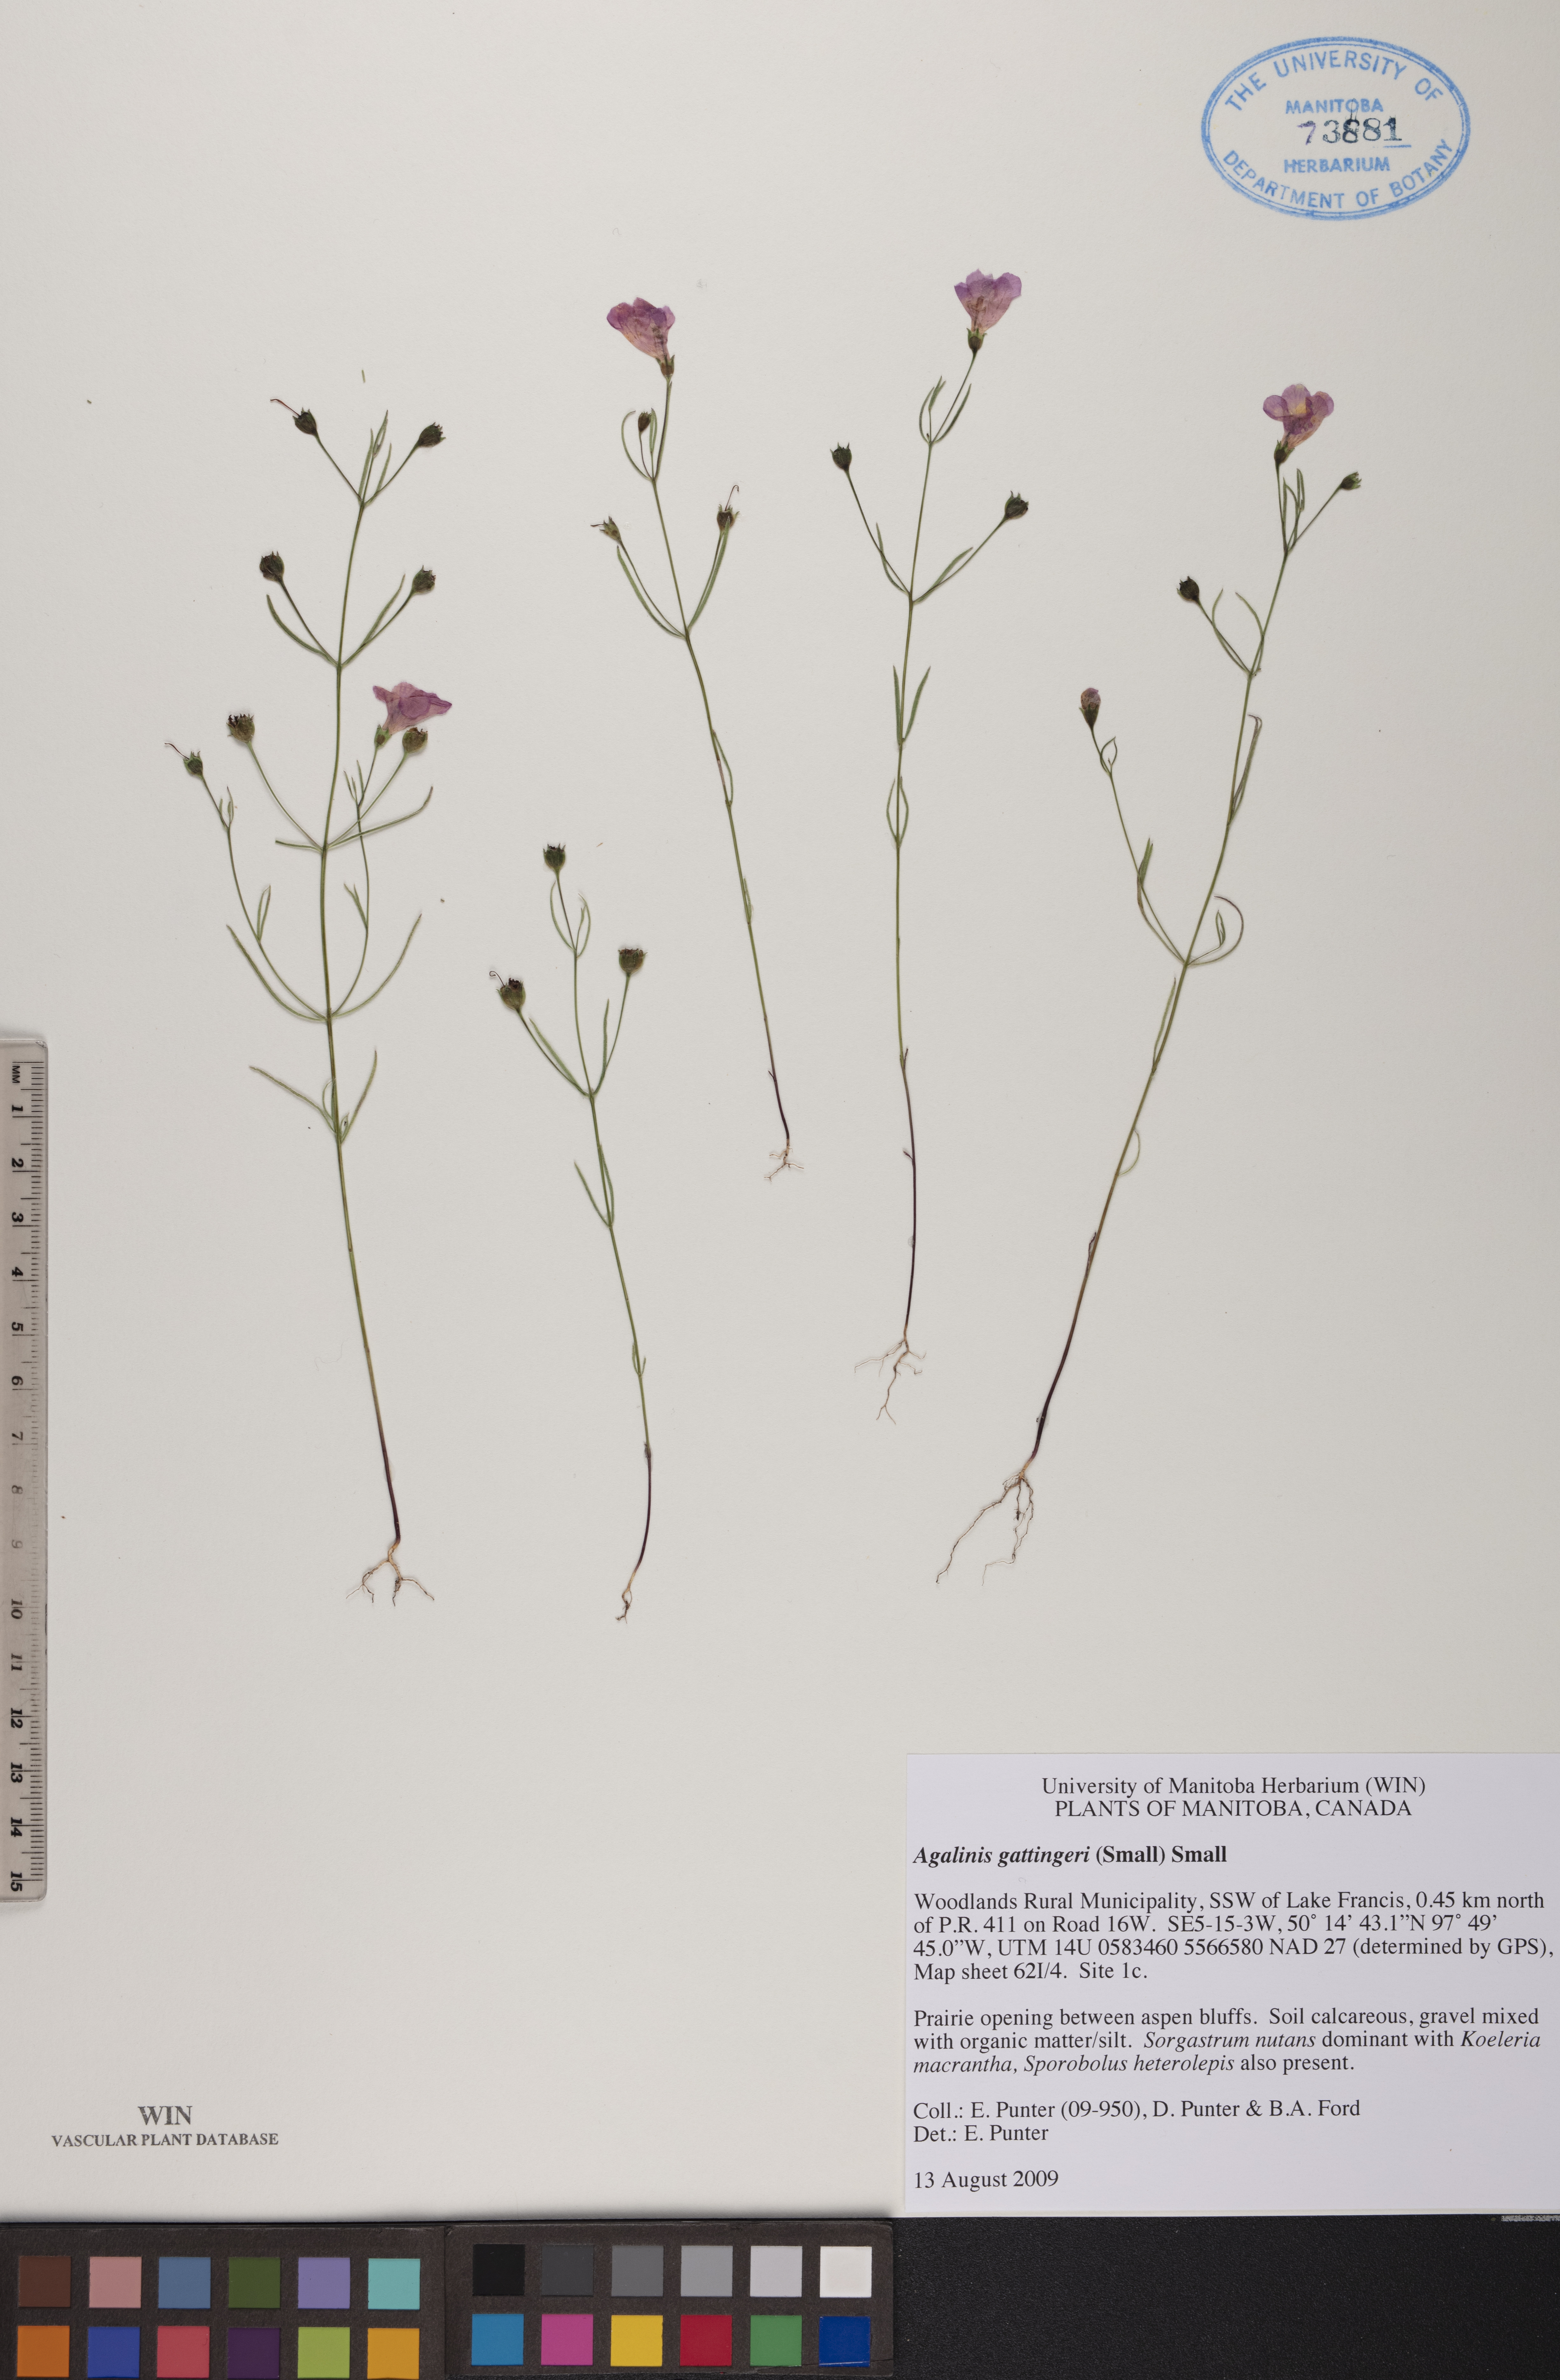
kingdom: Plantae
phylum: Tracheophyta
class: Magnoliopsida
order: Lamiales
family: Orobanchaceae
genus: Agalinis
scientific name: Agalinis gattingeri
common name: Gattinger's agalinis
